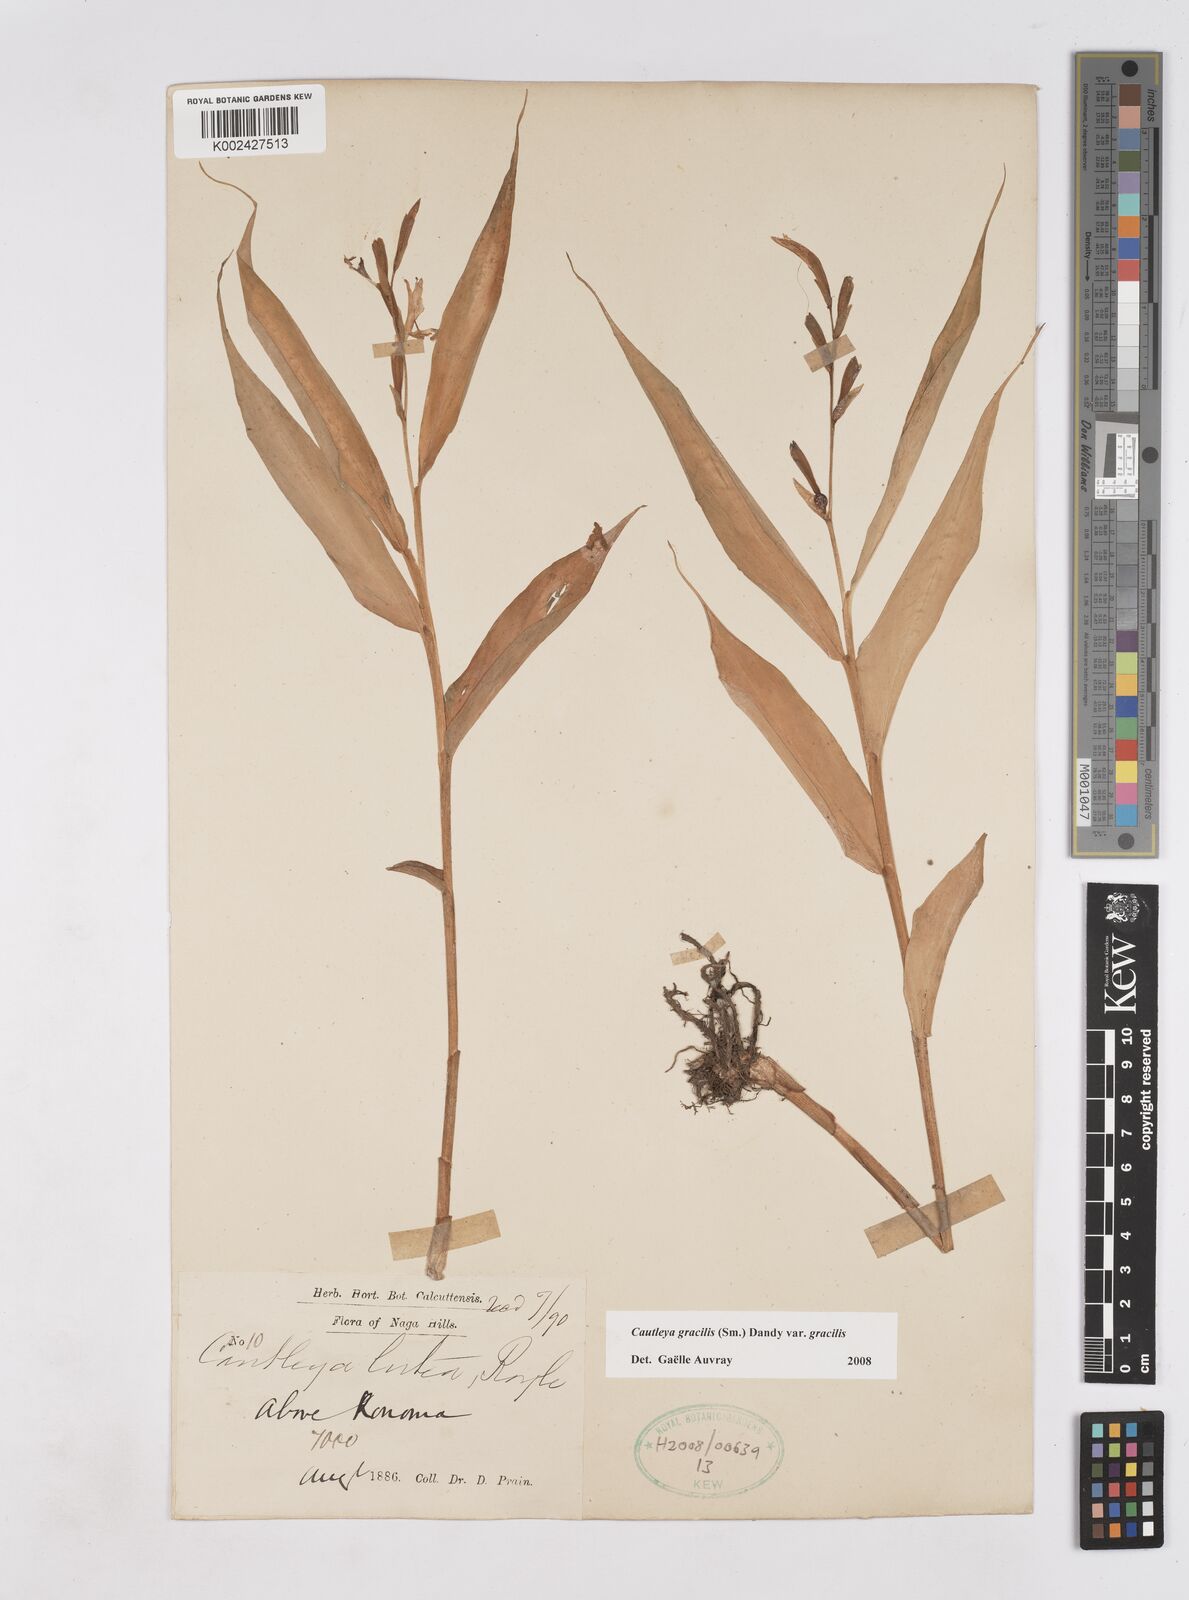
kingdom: Plantae
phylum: Tracheophyta
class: Liliopsida
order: Zingiberales
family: Zingiberaceae
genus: Cautleya
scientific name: Cautleya gracilis
